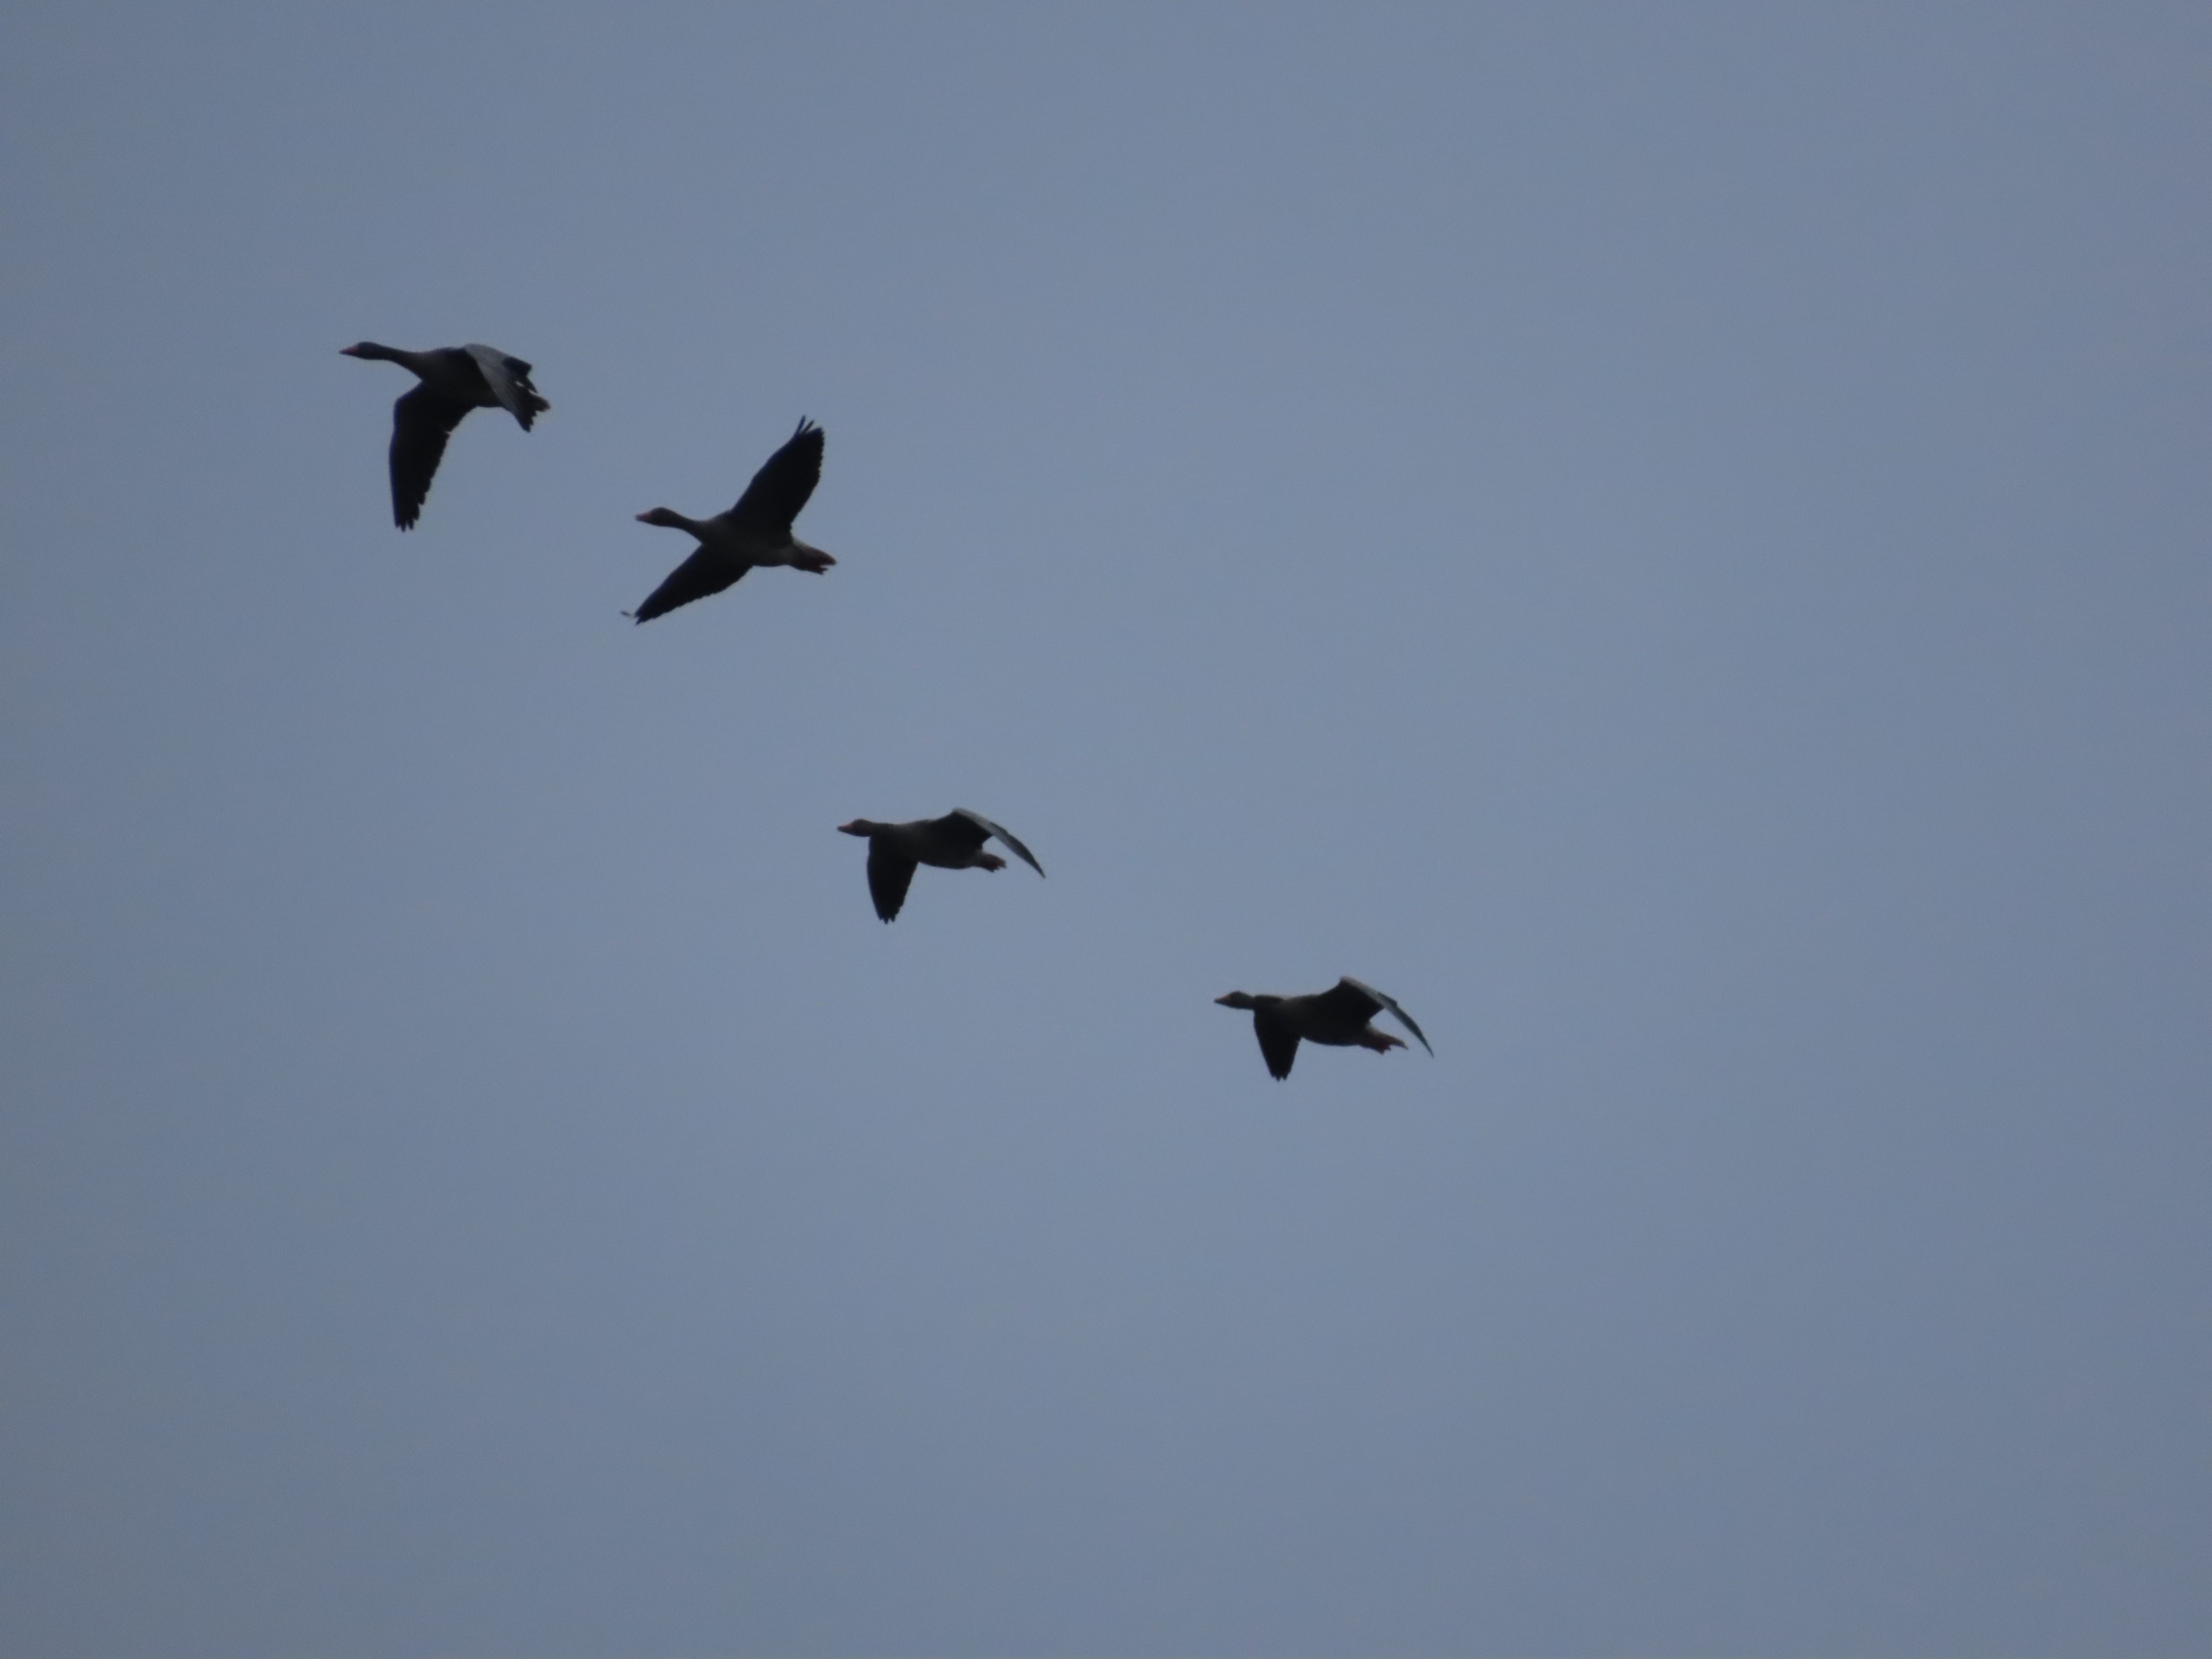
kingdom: Animalia
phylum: Chordata
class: Aves
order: Anseriformes
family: Anatidae
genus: Anser
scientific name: Anser anser
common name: Grågås
